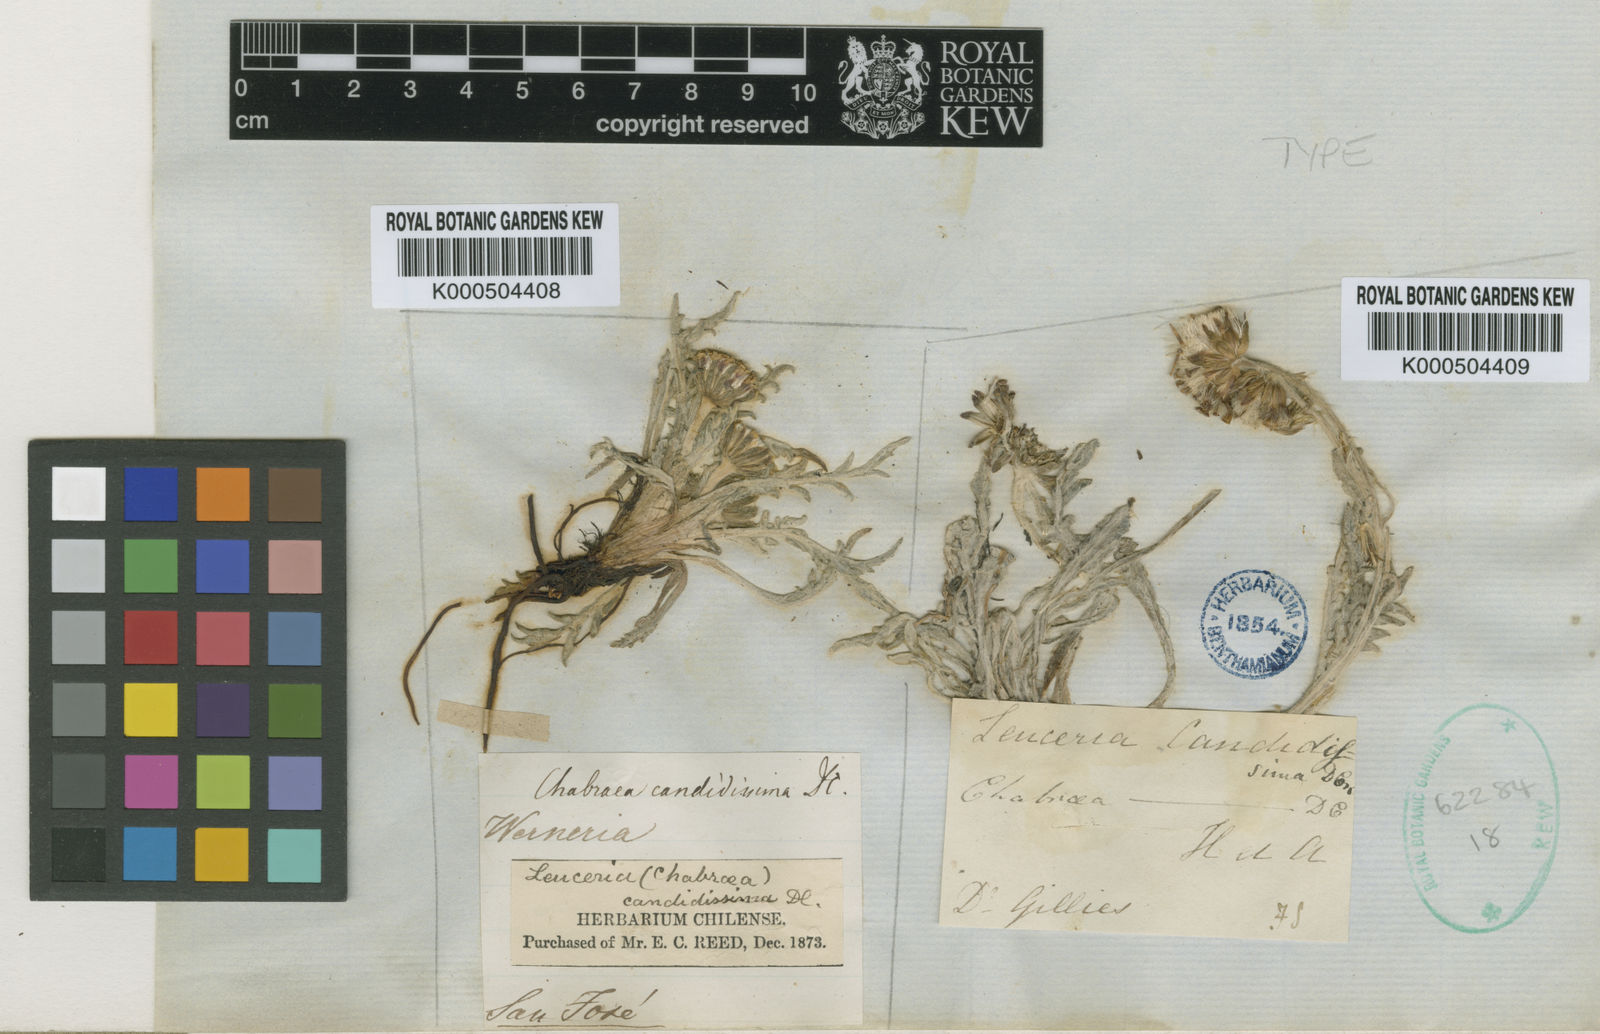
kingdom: Plantae
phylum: Tracheophyta
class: Magnoliopsida
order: Asterales
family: Asteraceae
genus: Leucheria
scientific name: Leucheria candidissima
